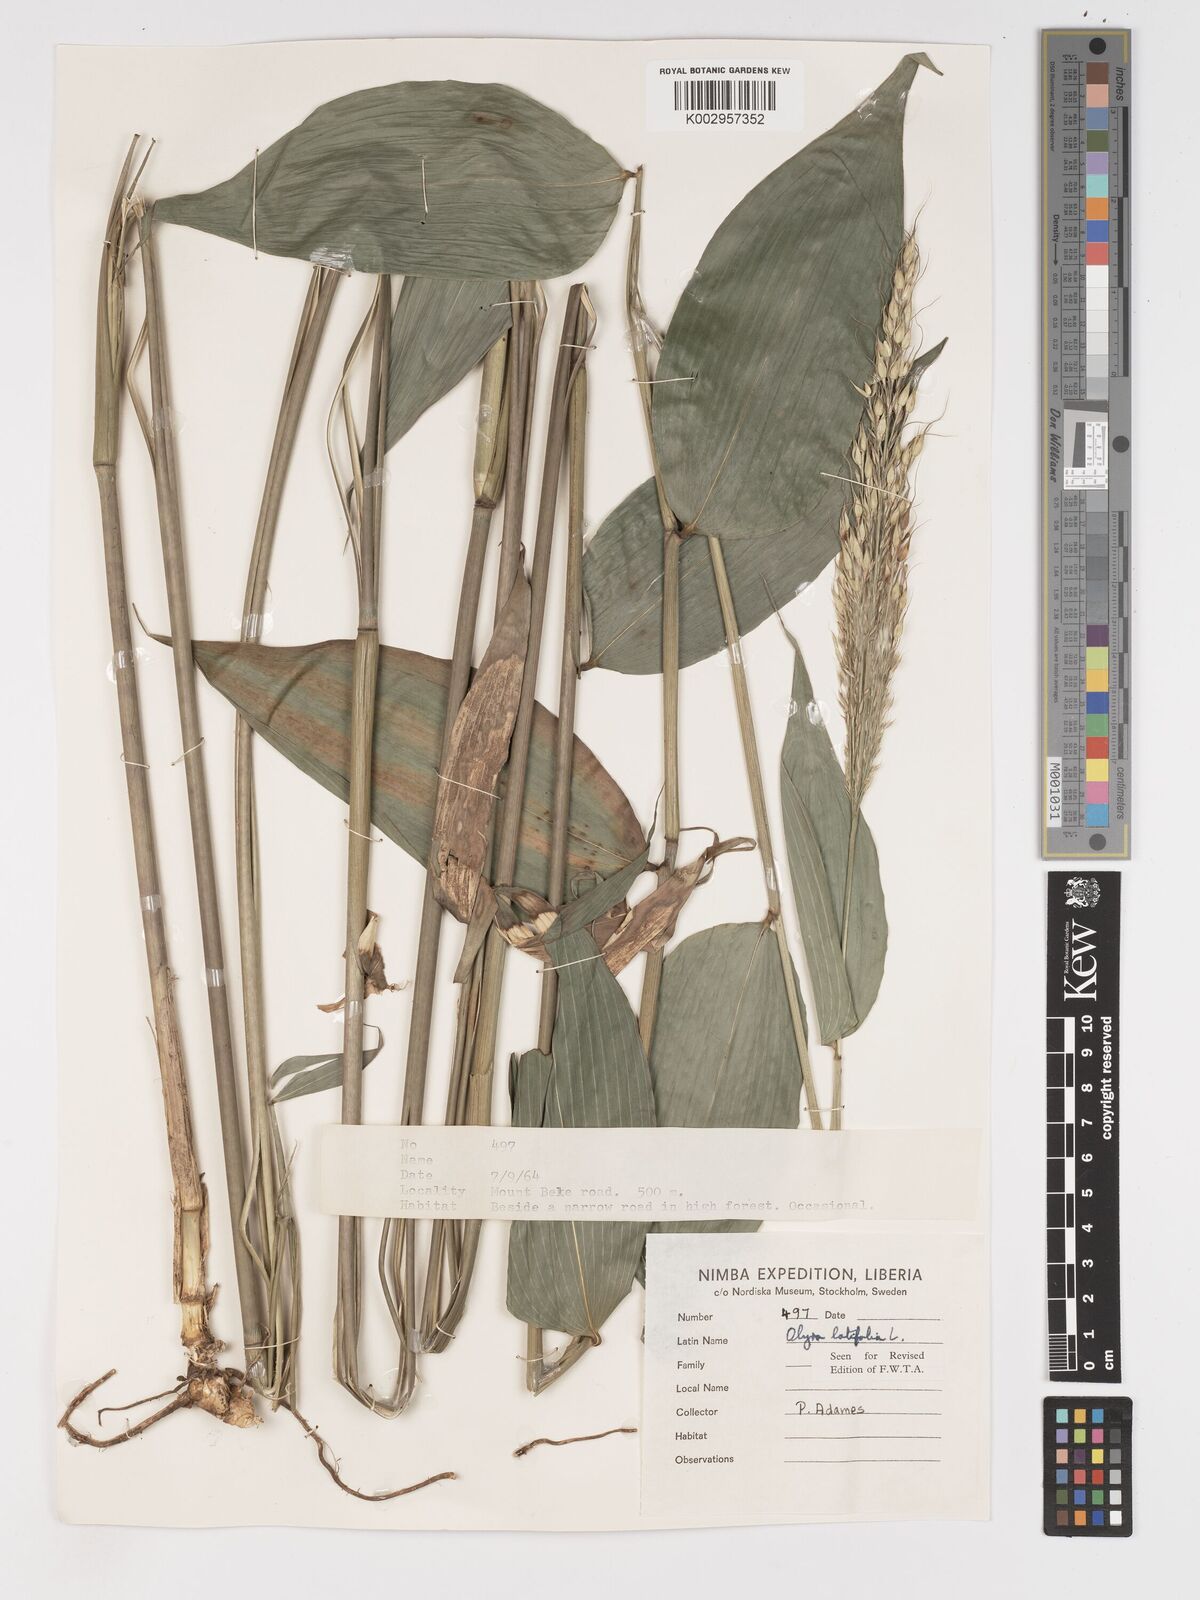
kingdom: Plantae
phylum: Tracheophyta
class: Liliopsida
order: Poales
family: Poaceae
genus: Olyra
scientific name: Olyra latifolia
